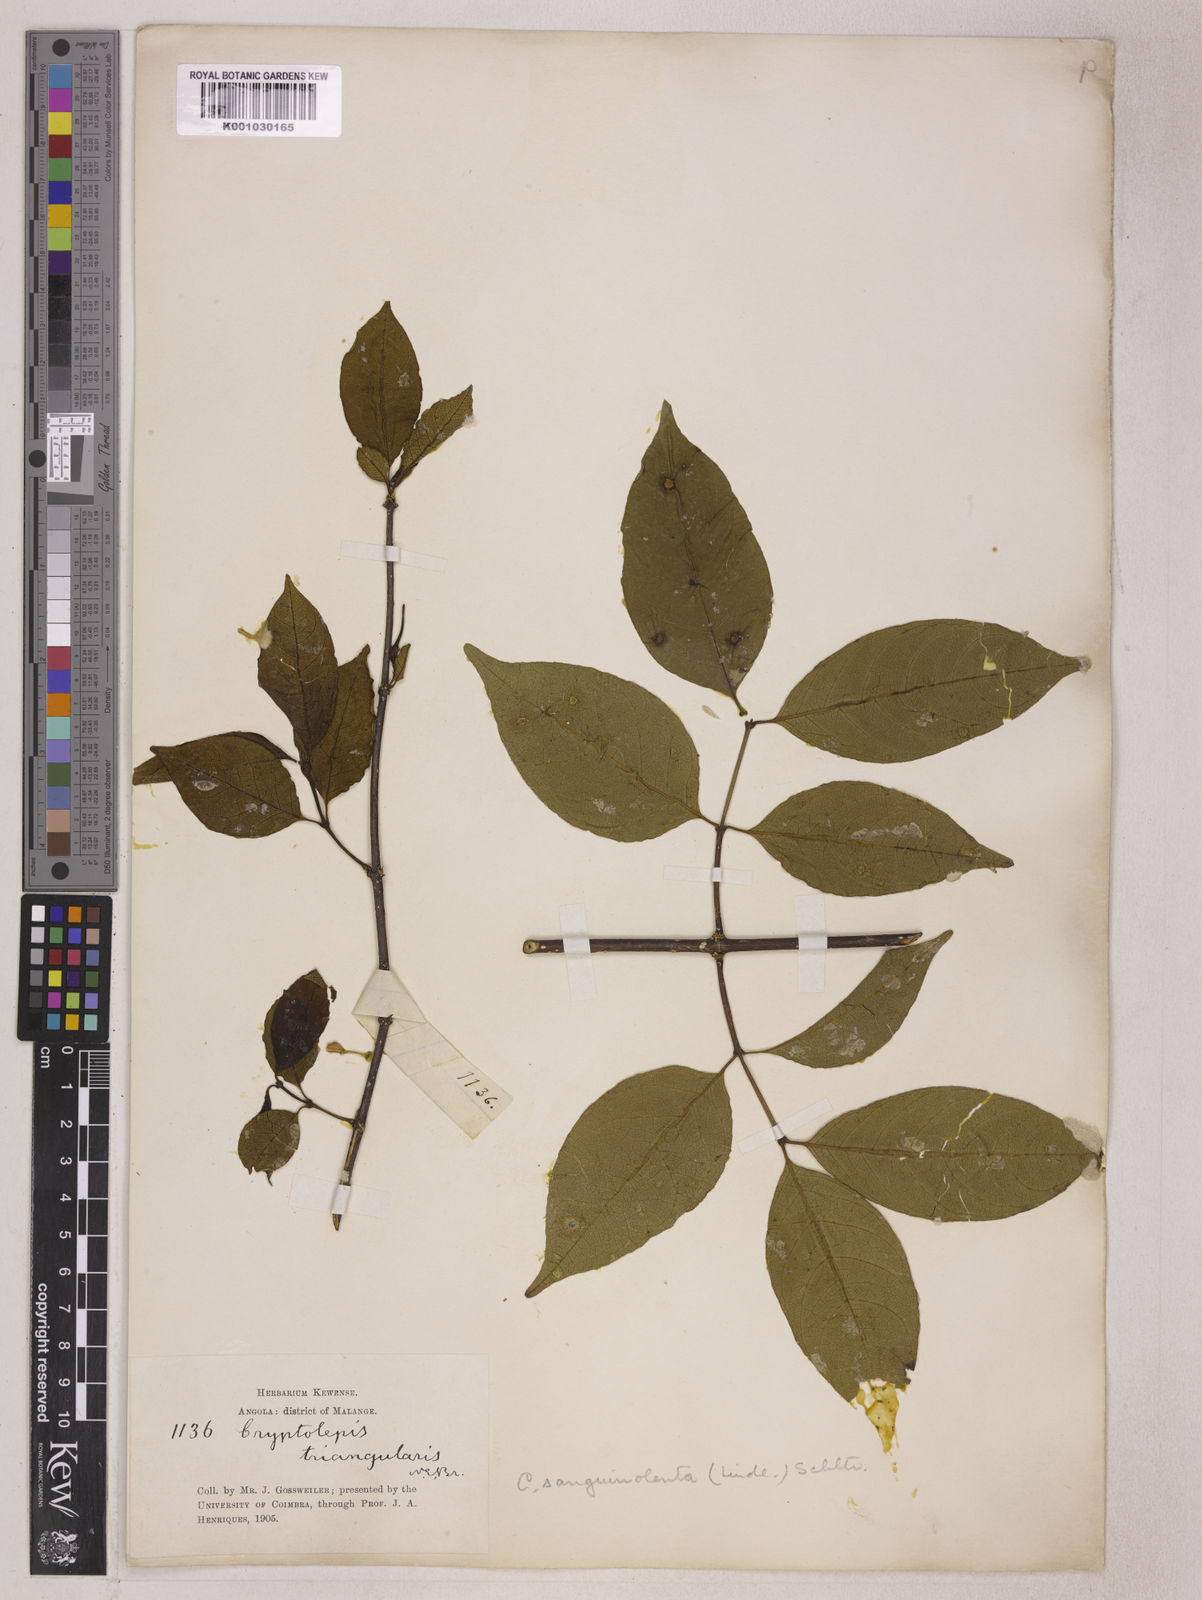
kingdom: Plantae
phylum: Tracheophyta
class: Magnoliopsida
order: Gentianales
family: Apocynaceae
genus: Cryptolepis
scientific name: Cryptolepis sanguinolenta
